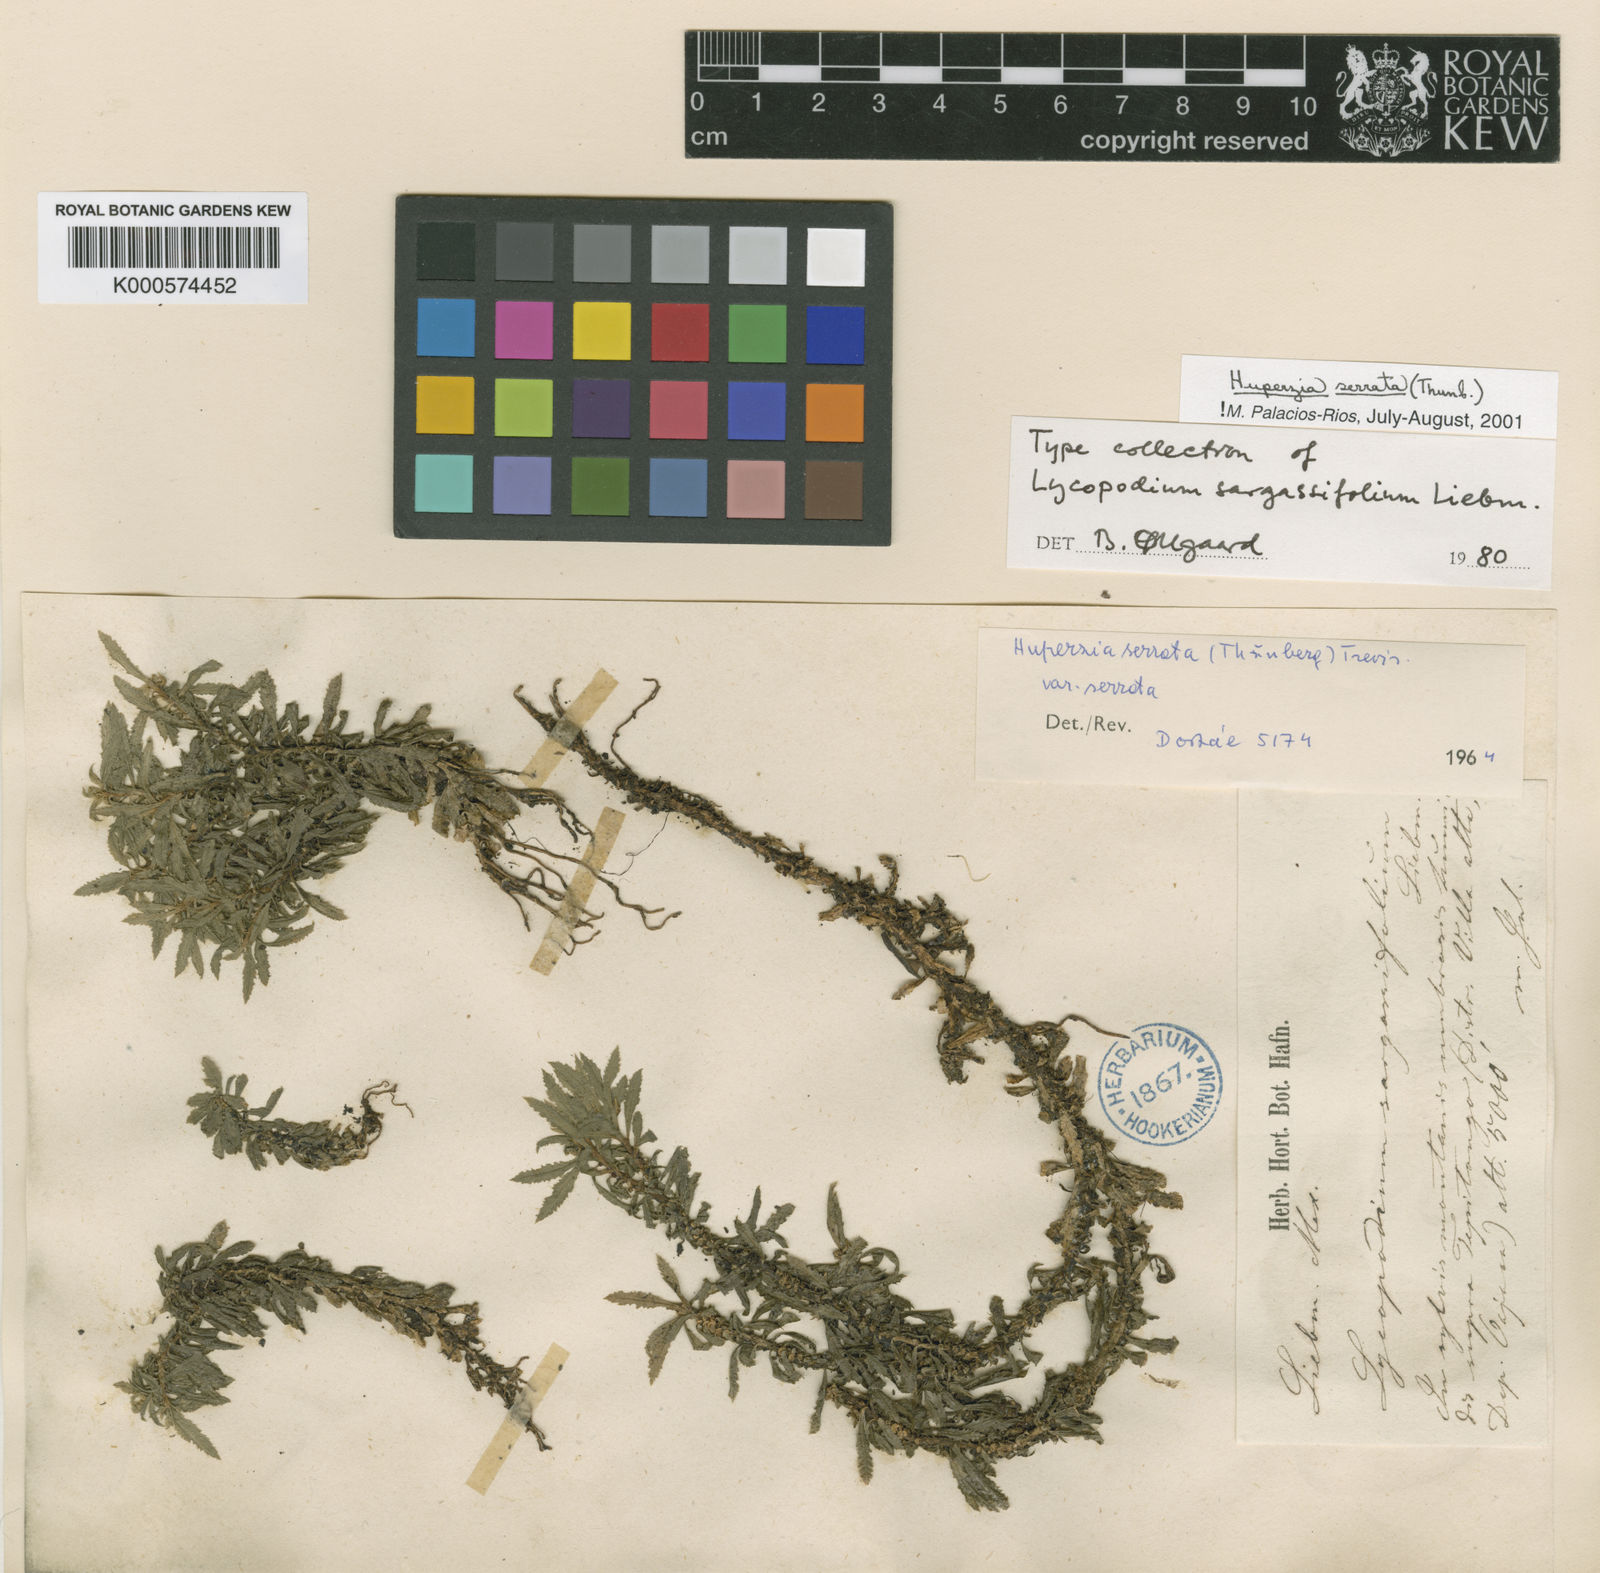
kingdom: Plantae
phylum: Tracheophyta
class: Lycopodiopsida
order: Lycopodiales
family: Lycopodiaceae
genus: Huperzia
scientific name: Huperzia javanica
